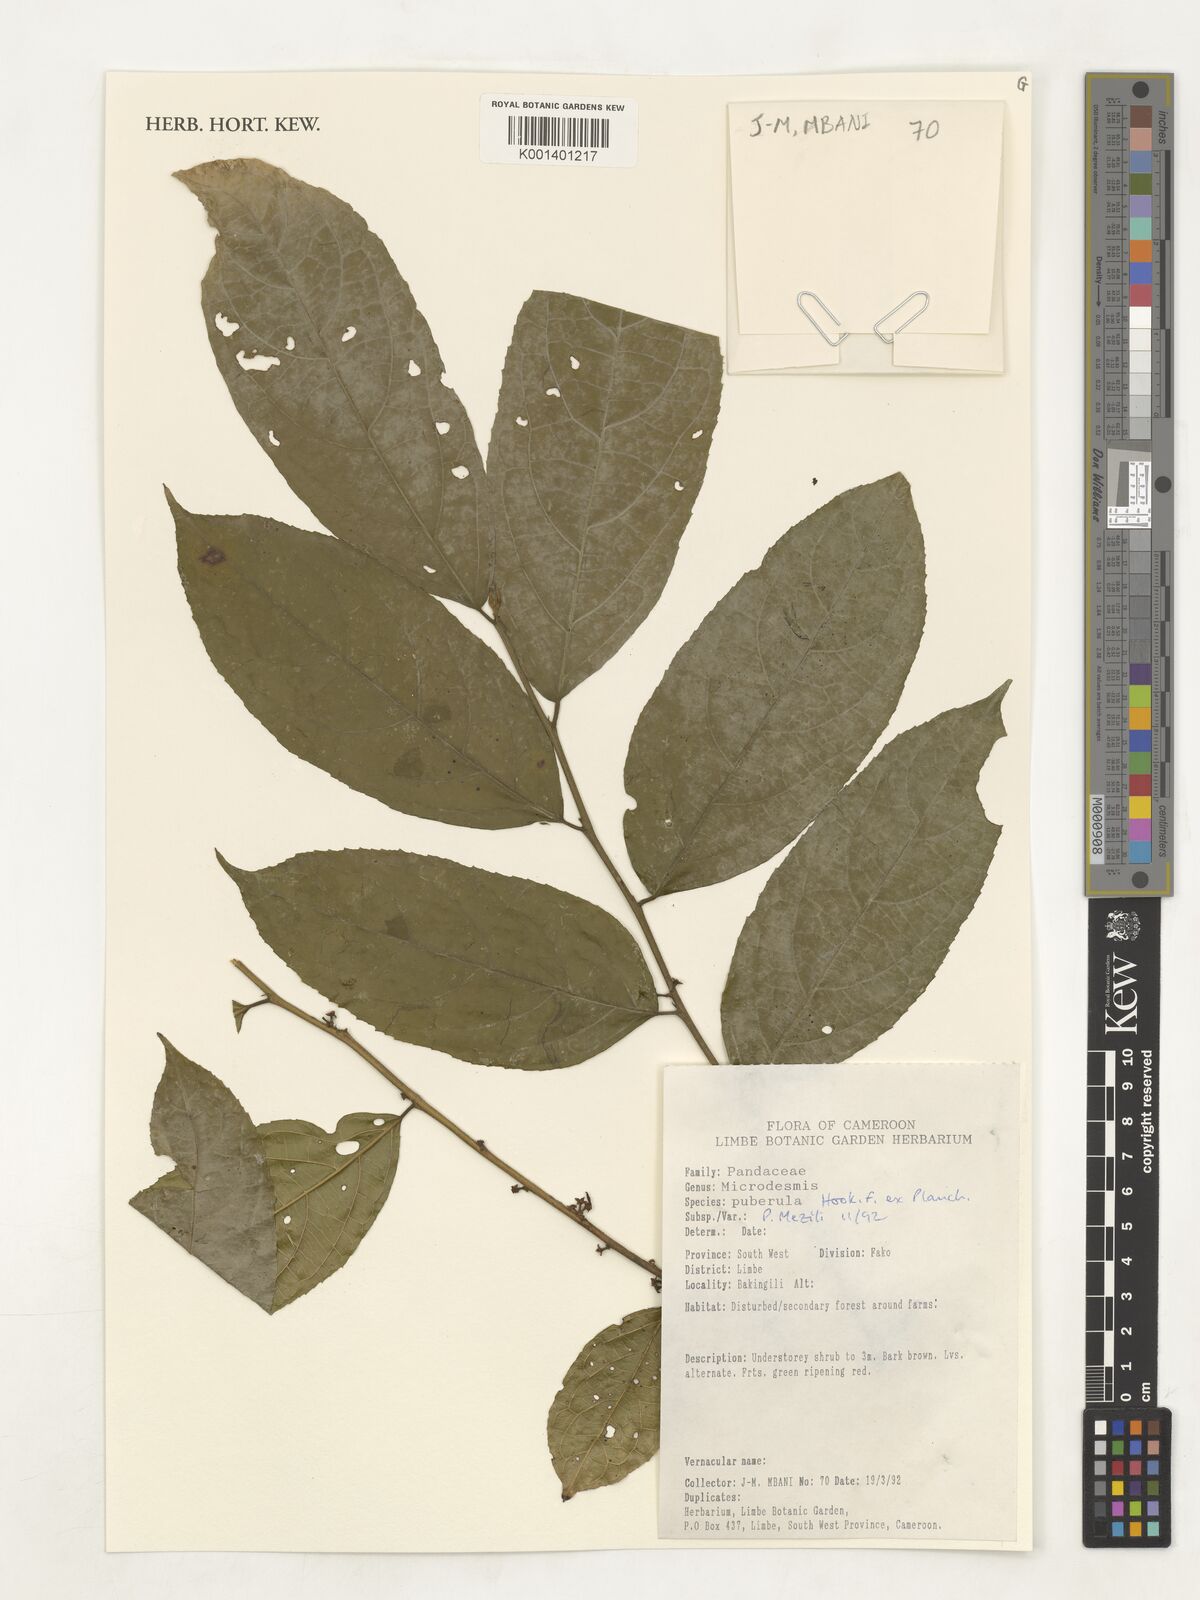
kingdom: Plantae
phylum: Tracheophyta
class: Magnoliopsida
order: Malpighiales
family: Pandaceae
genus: Microdesmis
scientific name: Microdesmis puberula
